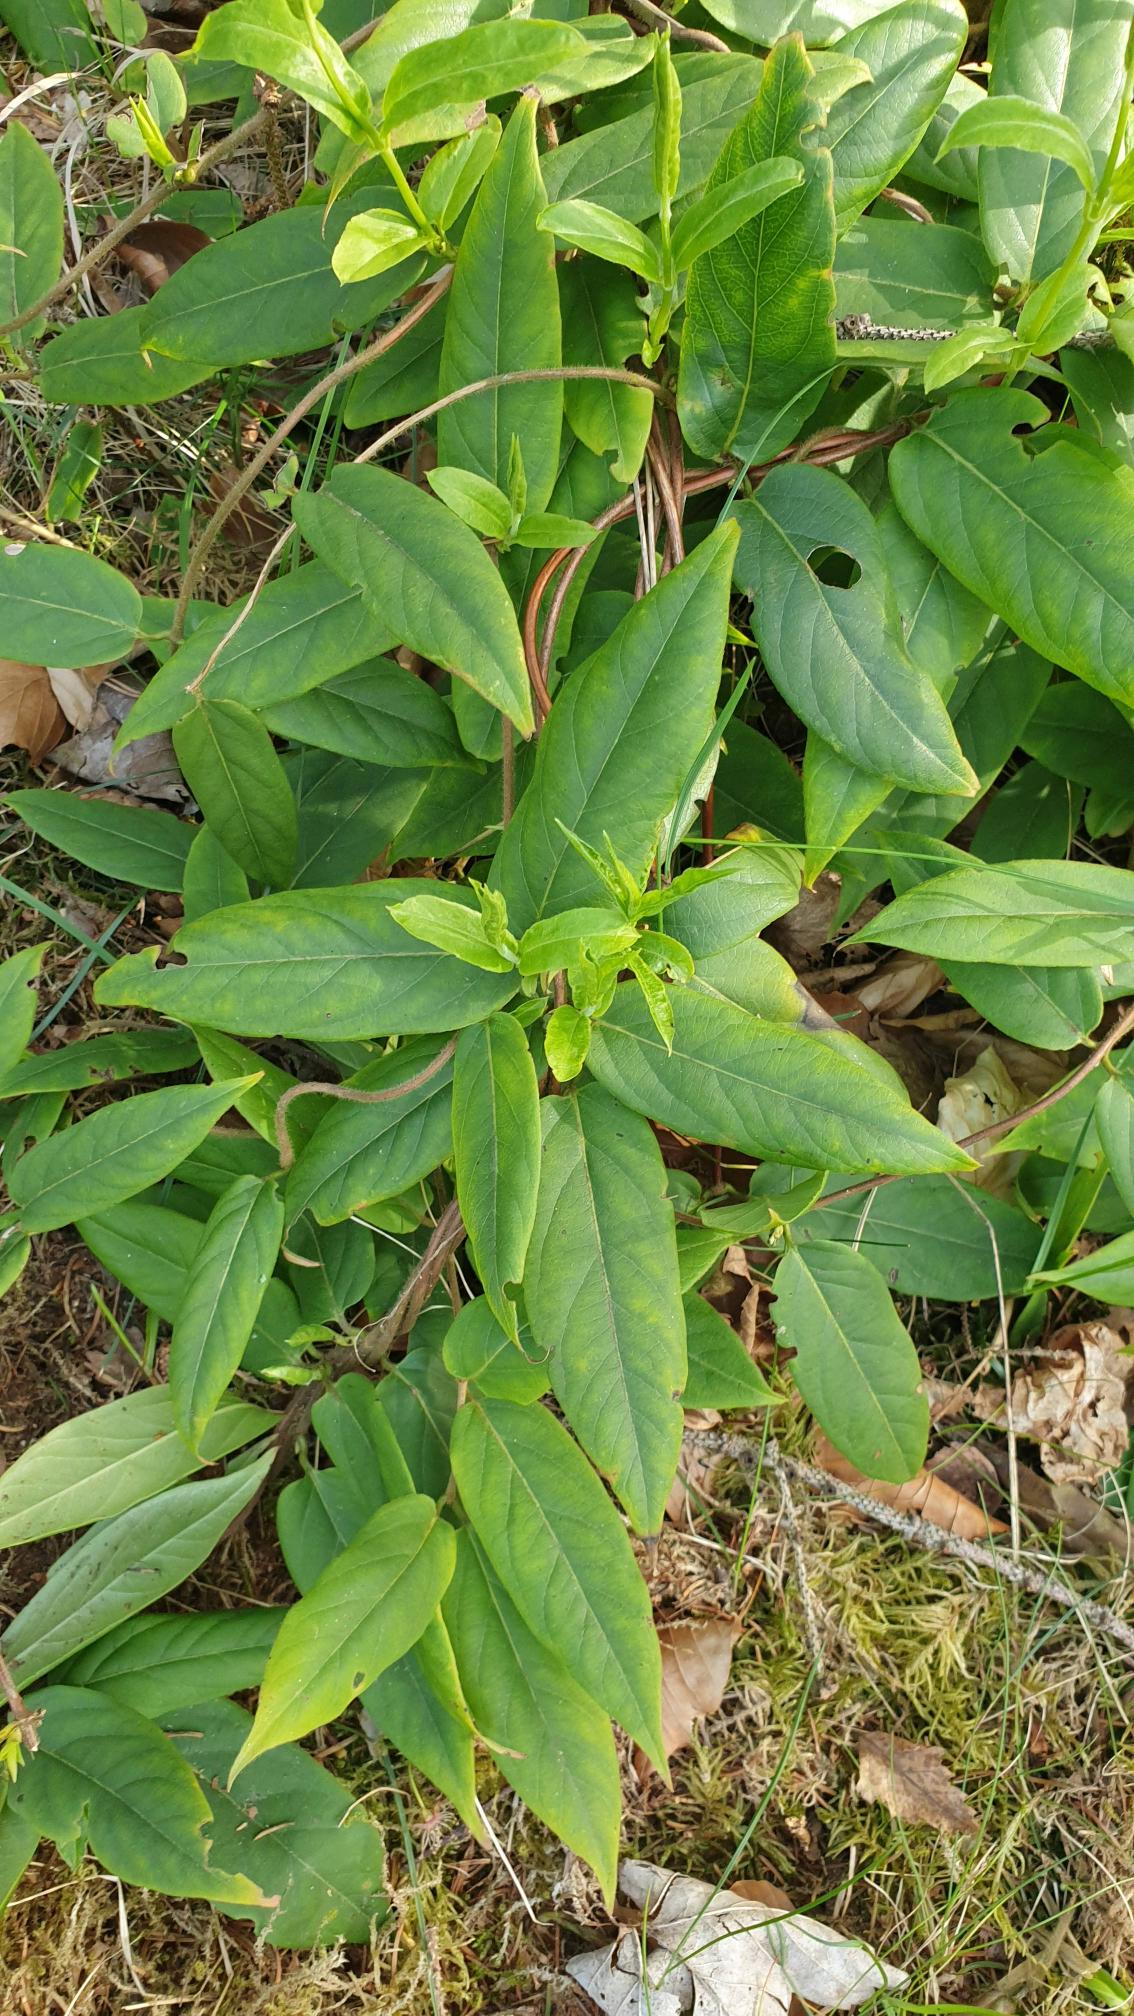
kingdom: Plantae
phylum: Tracheophyta
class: Magnoliopsida
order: Dipsacales
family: Caprifoliaceae
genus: Lonicera
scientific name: Lonicera acuminata
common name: Henrys gedeblad
